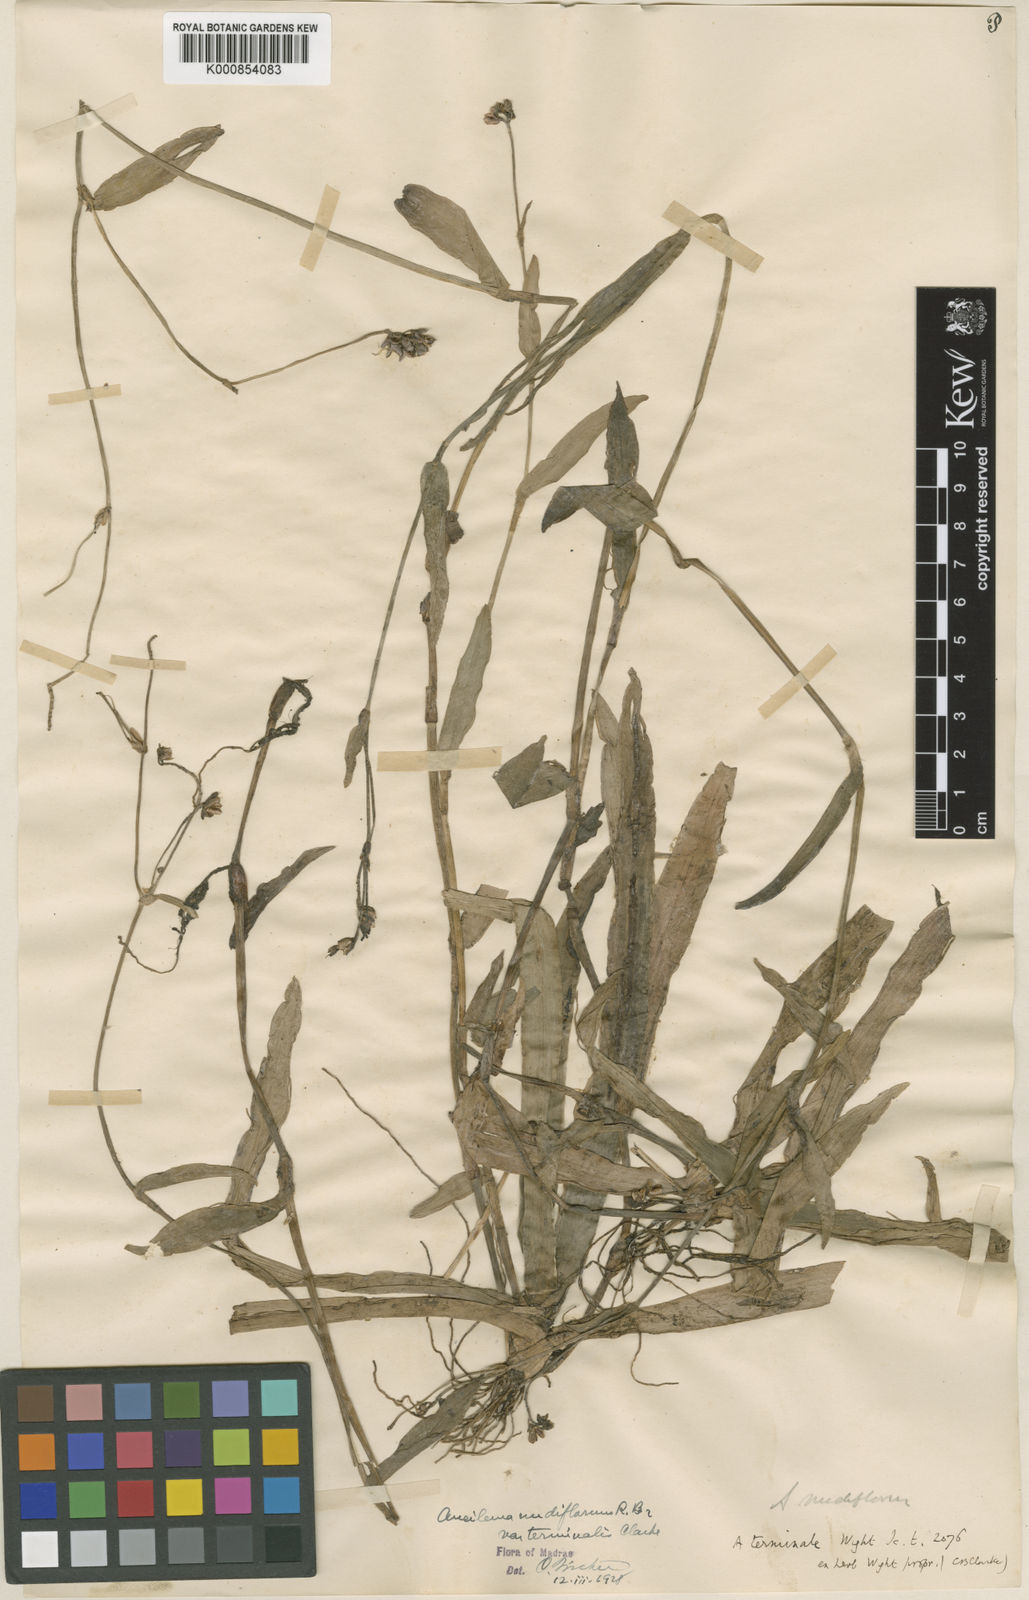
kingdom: Plantae
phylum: Tracheophyta
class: Liliopsida
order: Commelinales
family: Commelinaceae
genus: Murdannia
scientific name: Murdannia nudiflora
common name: Nakedstem dewflower
